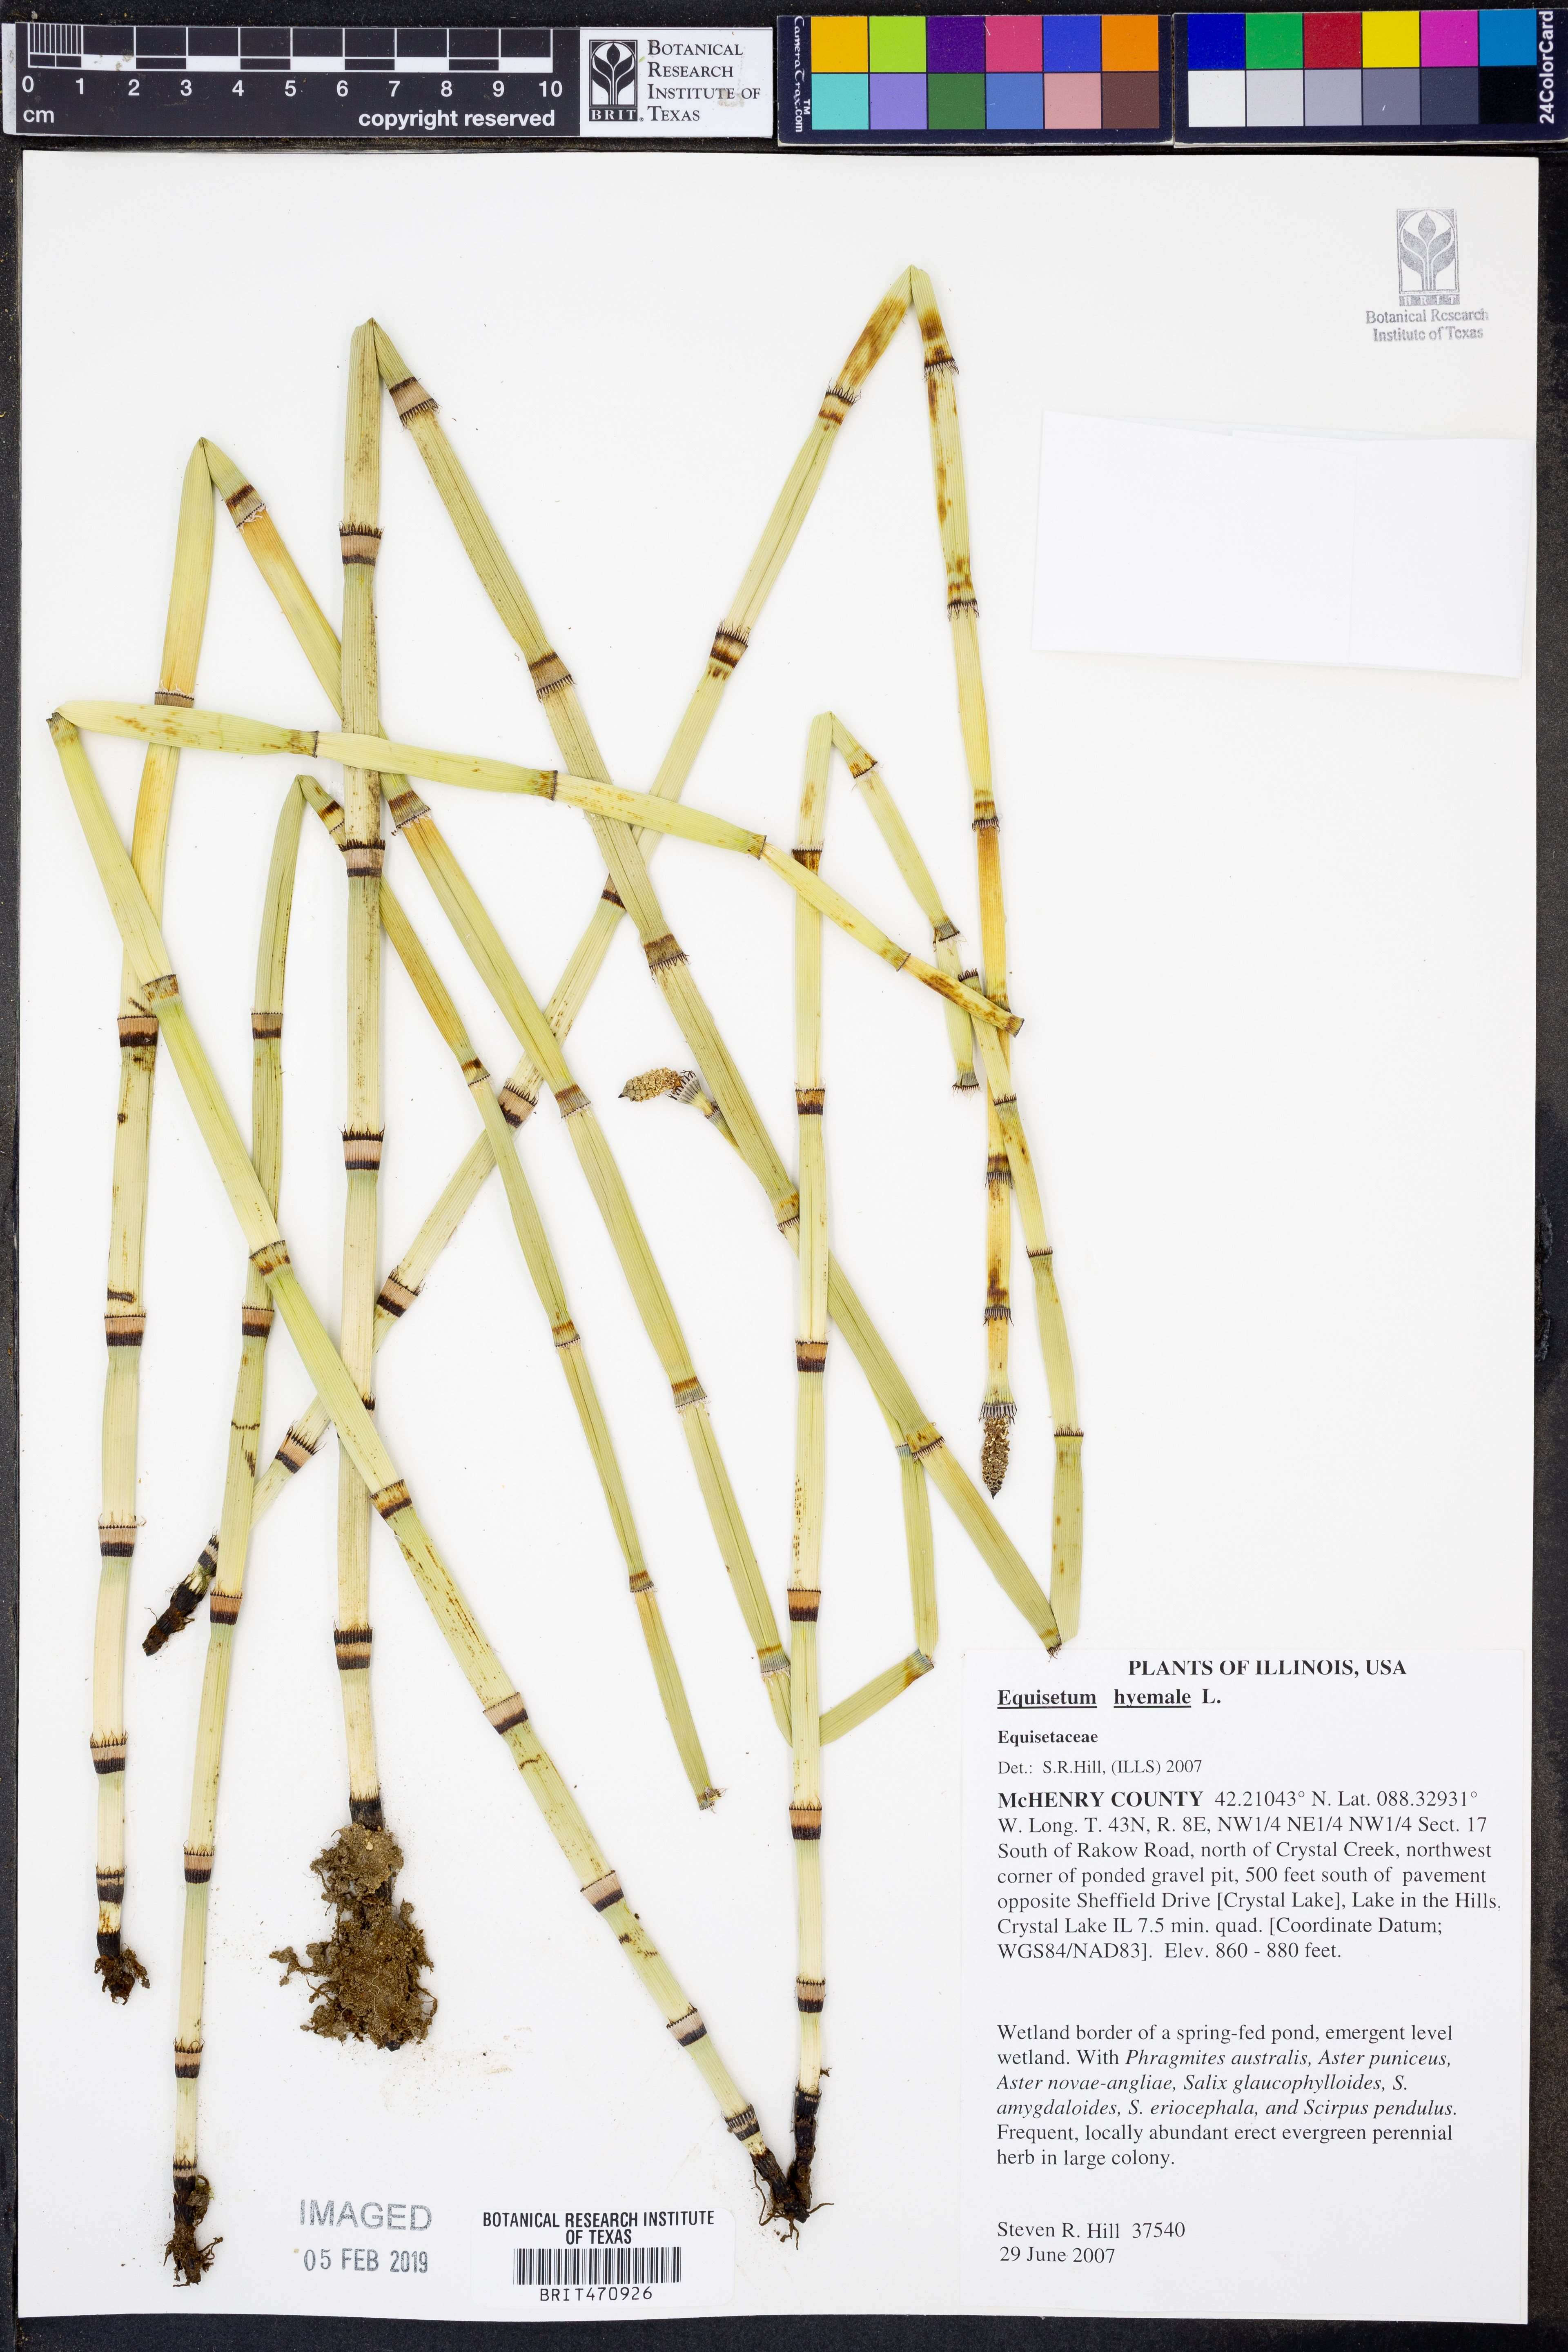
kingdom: Plantae
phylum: Tracheophyta
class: Polypodiopsida
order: Equisetales
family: Equisetaceae
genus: Equisetum
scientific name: Equisetum hyemale
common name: Rough horsetail
